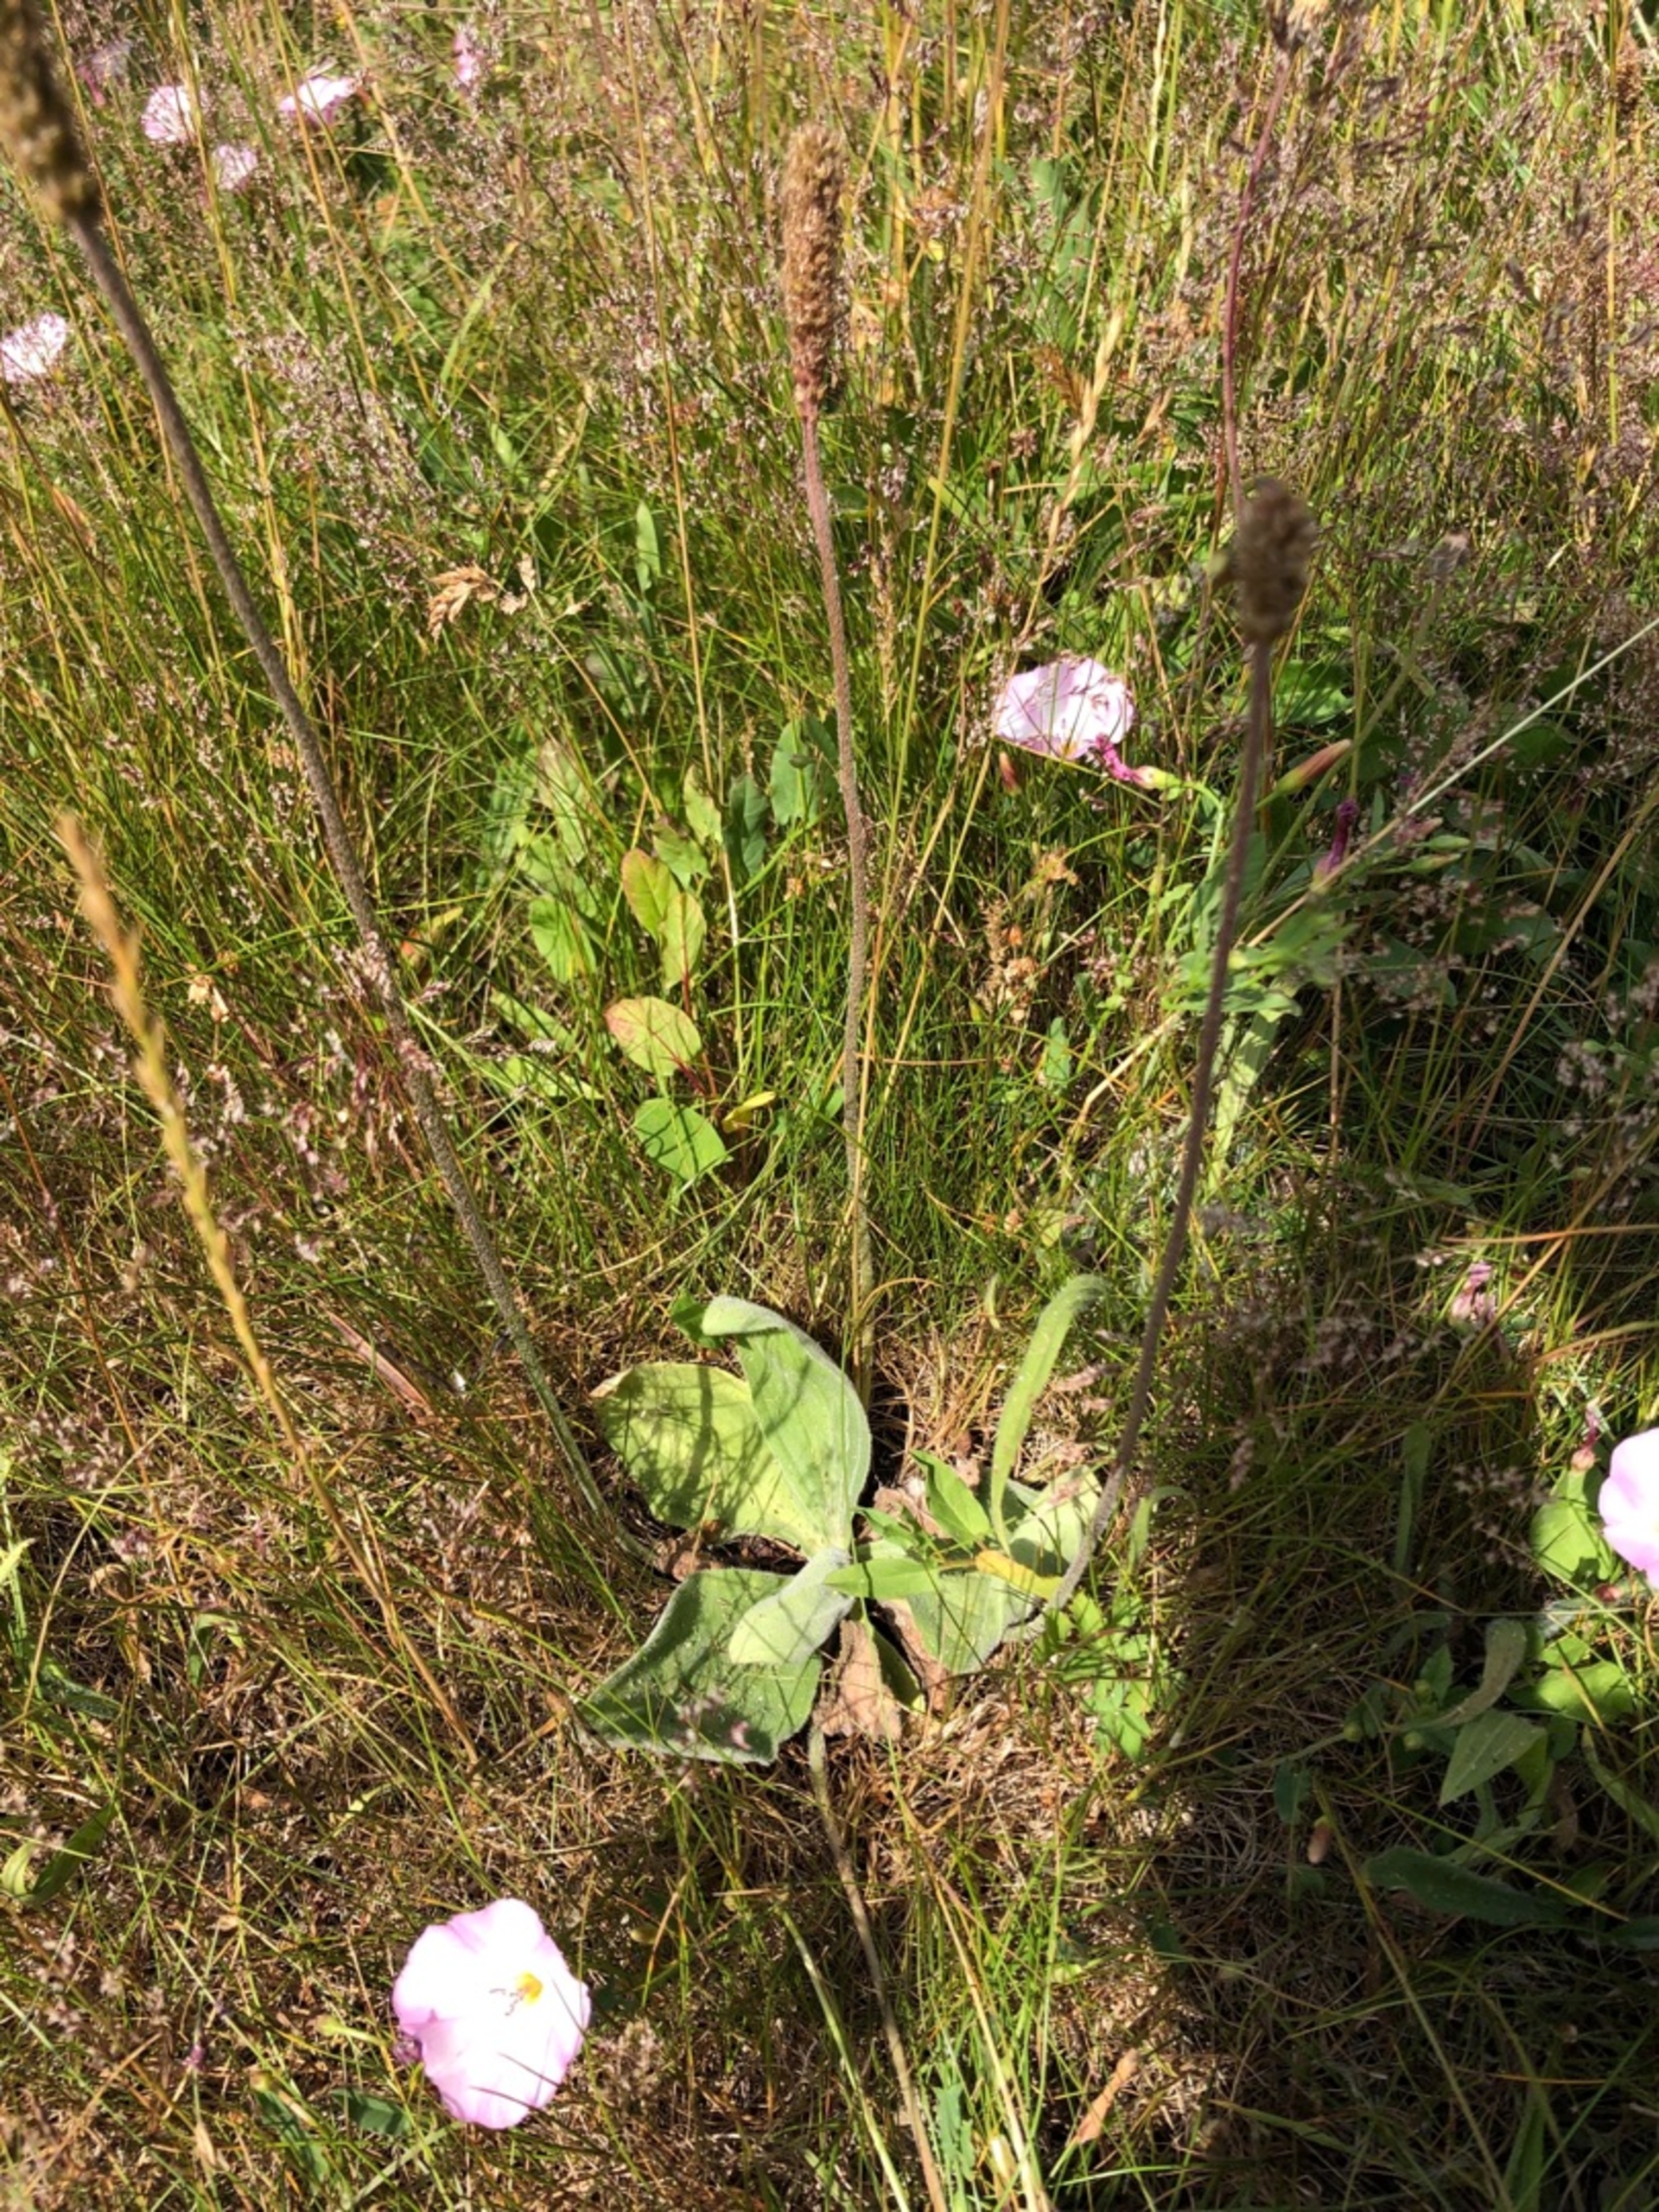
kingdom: Plantae
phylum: Tracheophyta
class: Magnoliopsida
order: Lamiales
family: Plantaginaceae
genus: Plantago
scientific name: Plantago media
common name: Dunet vejbred
